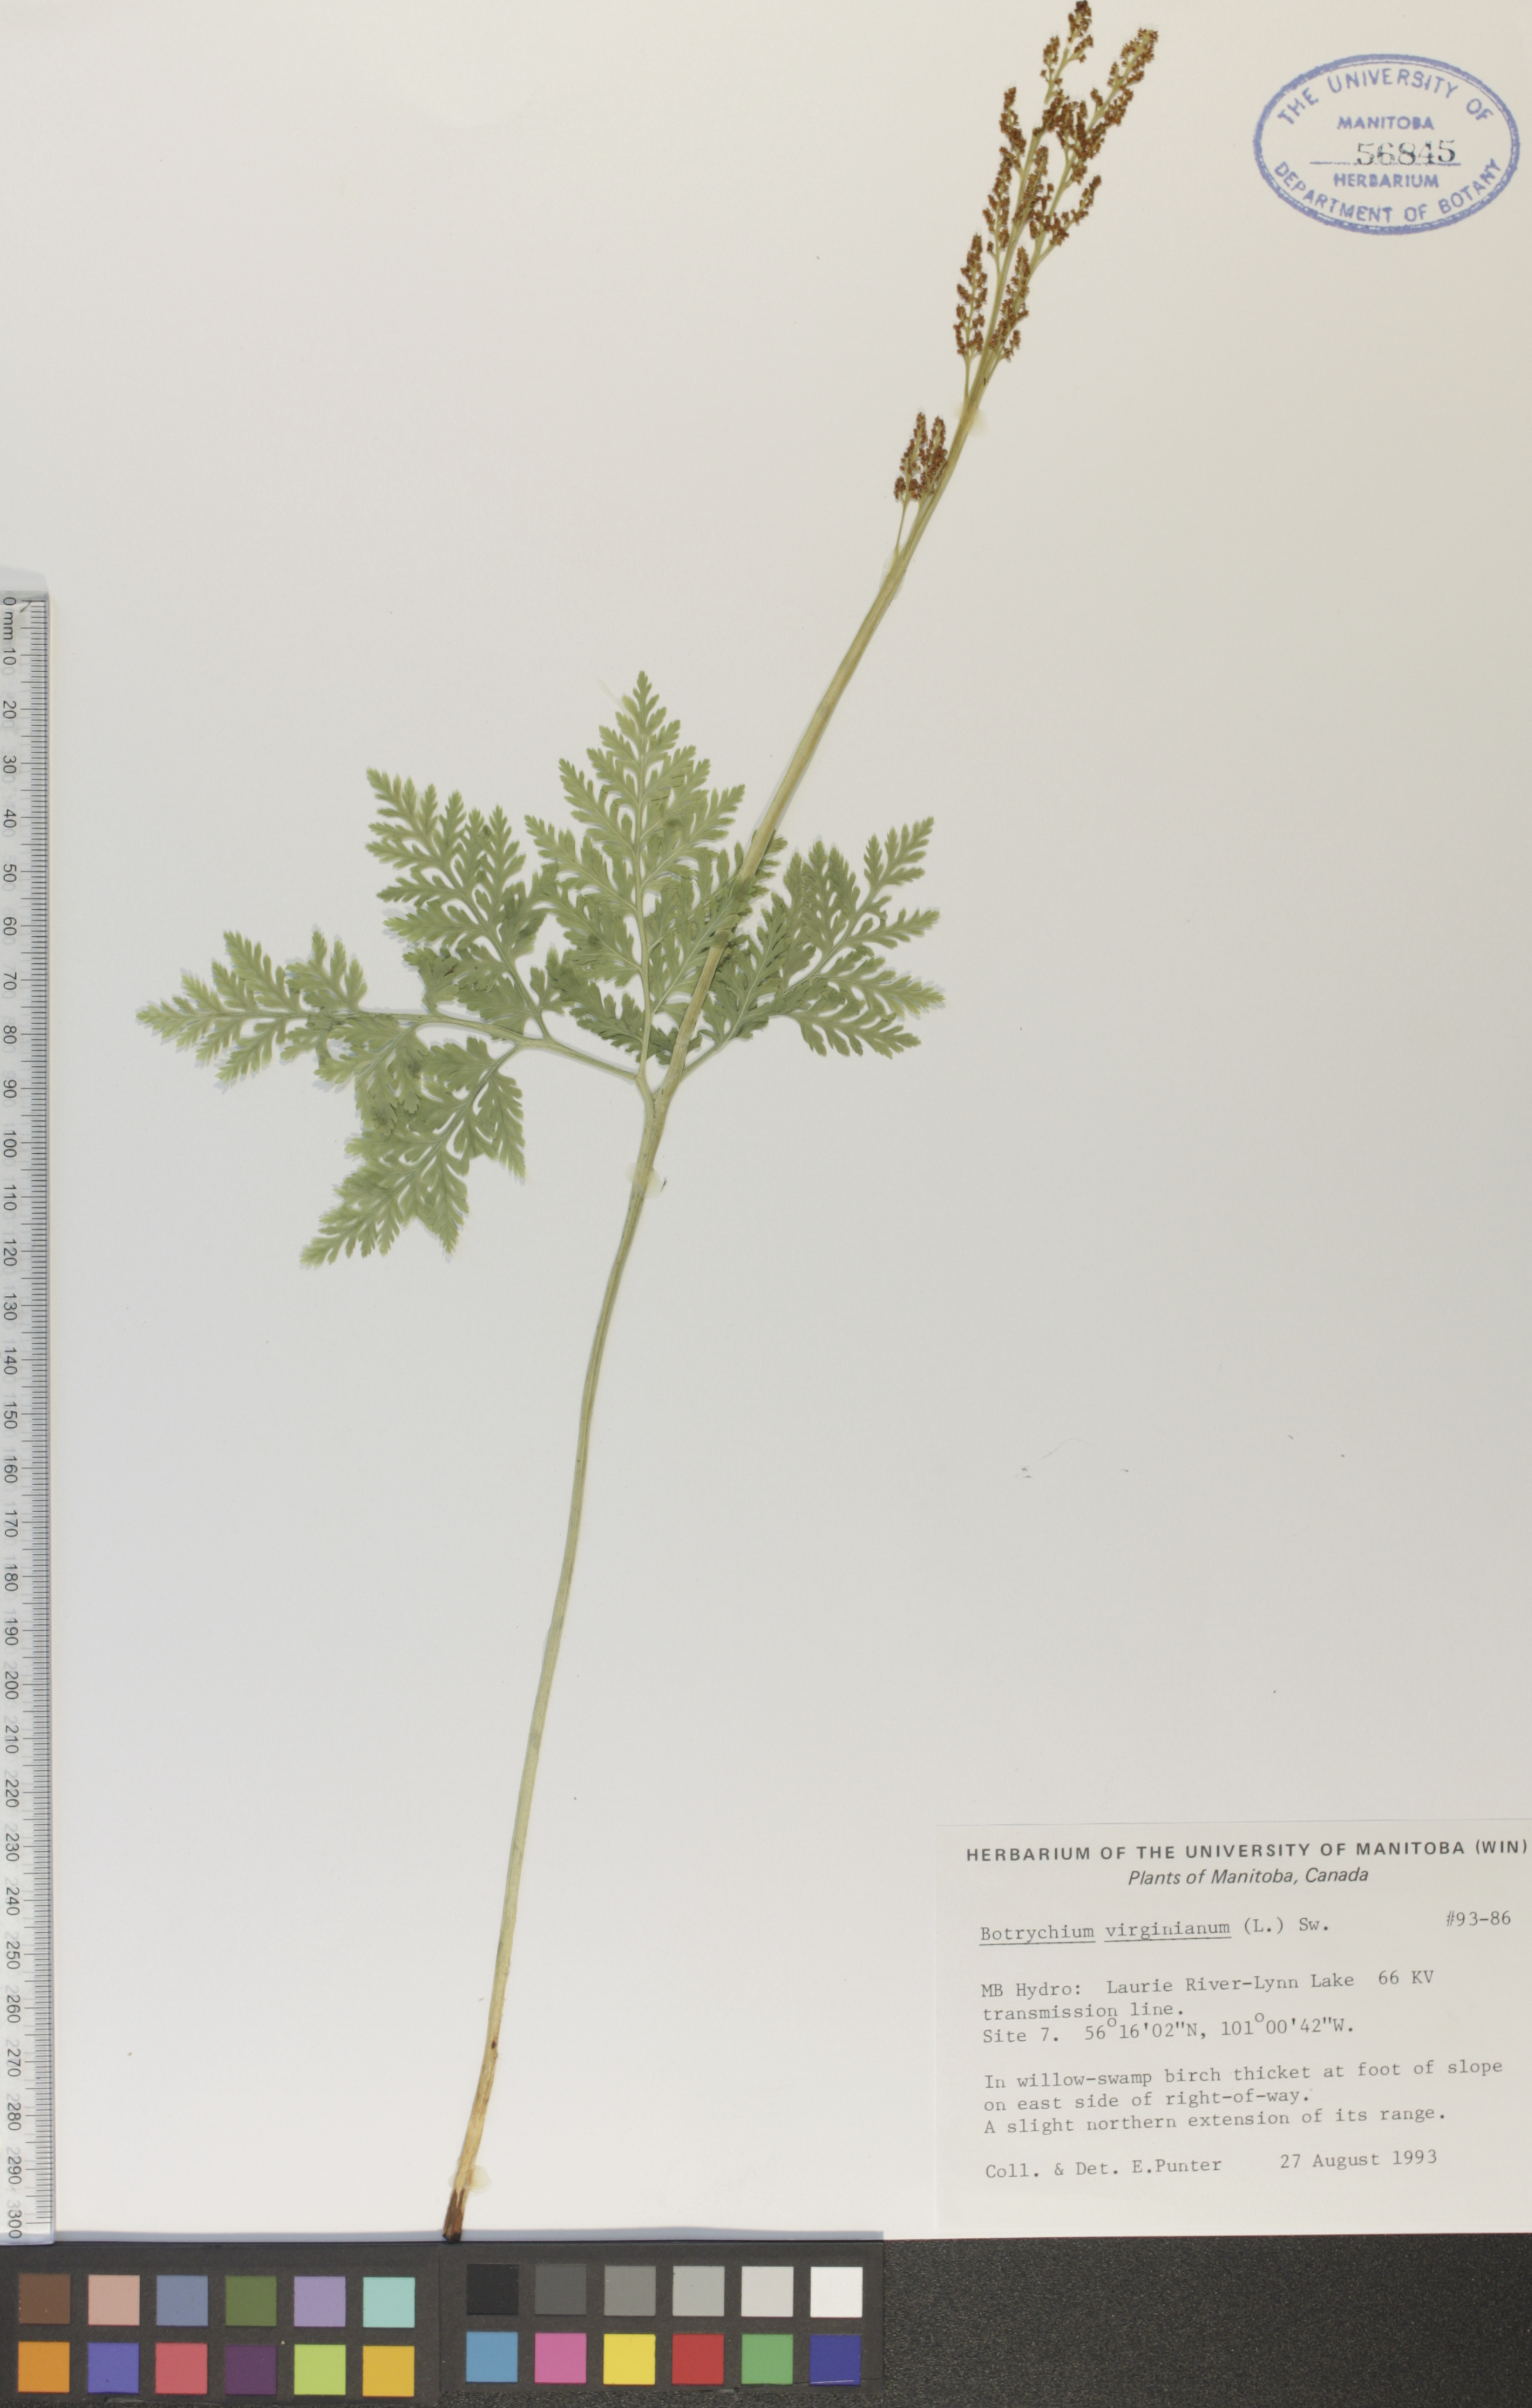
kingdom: Plantae
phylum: Tracheophyta
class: Polypodiopsida
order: Ophioglossales
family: Ophioglossaceae
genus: Botrypus
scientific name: Botrypus virginianus
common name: Common grapefern
